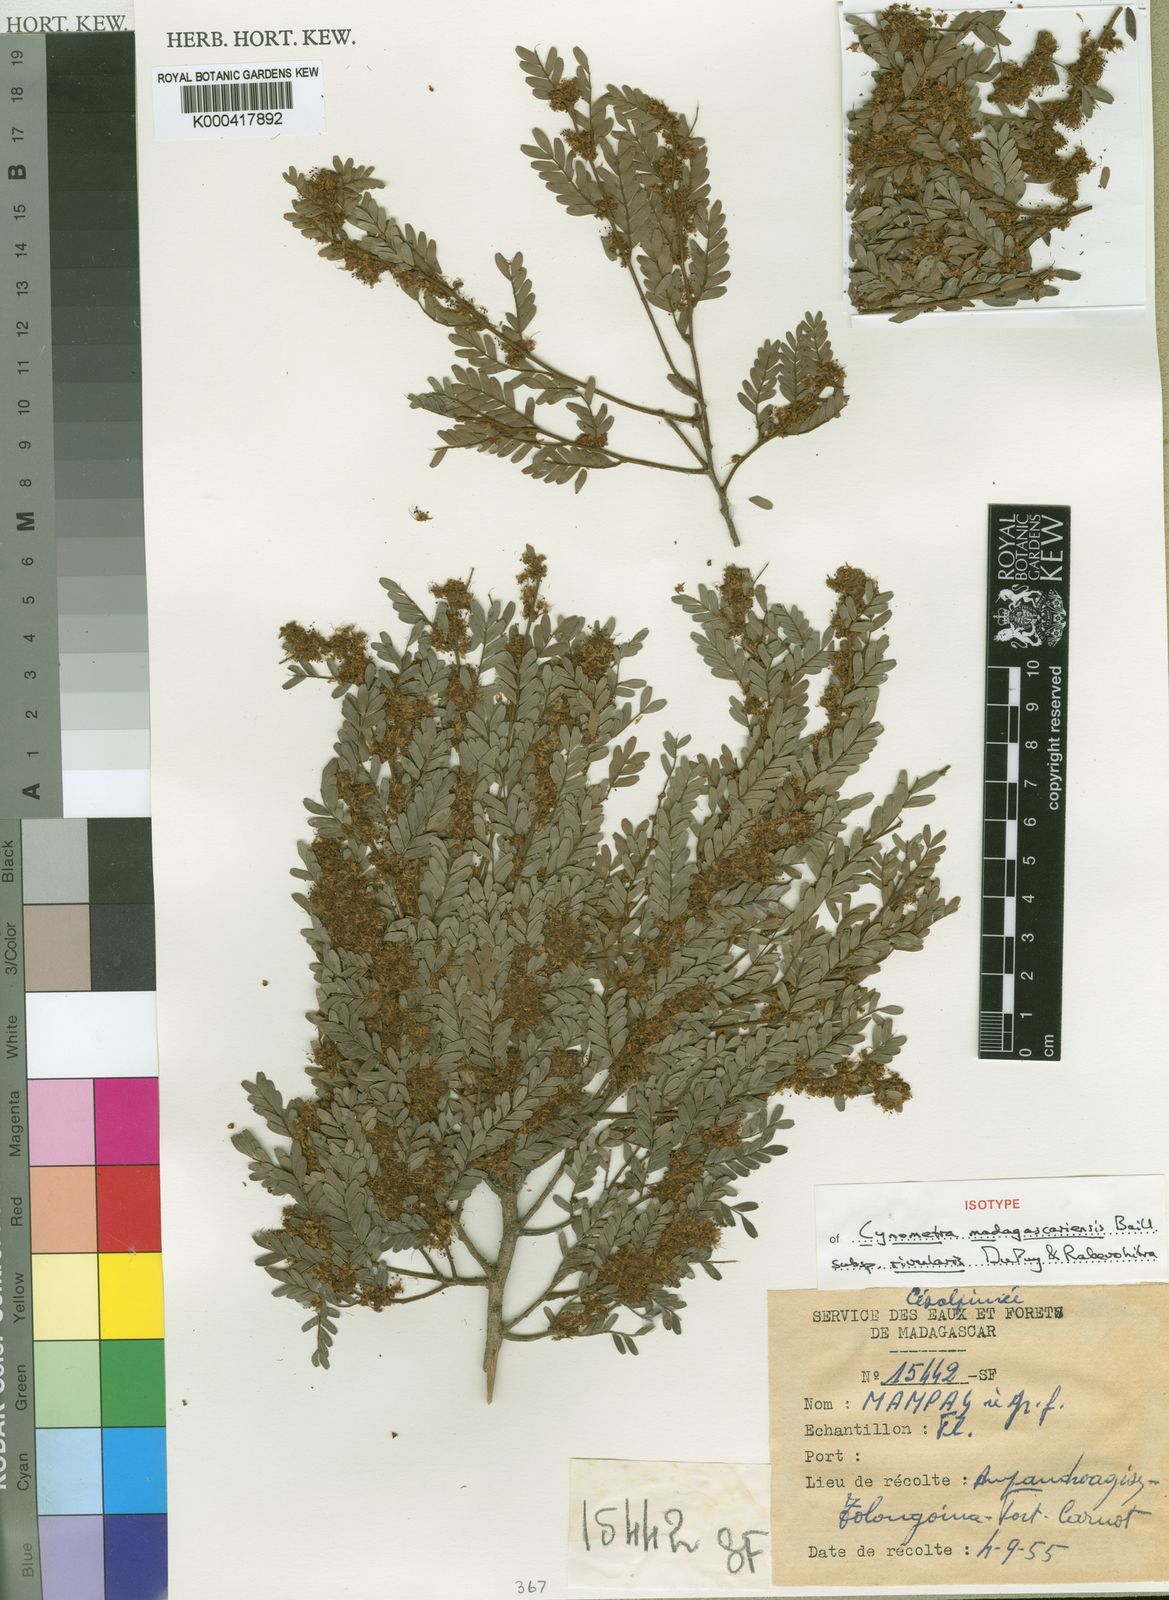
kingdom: Plantae
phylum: Tracheophyta
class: Magnoliopsida
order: Fabales
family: Fabaceae
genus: Cynometra
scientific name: Cynometra madagascariensis
